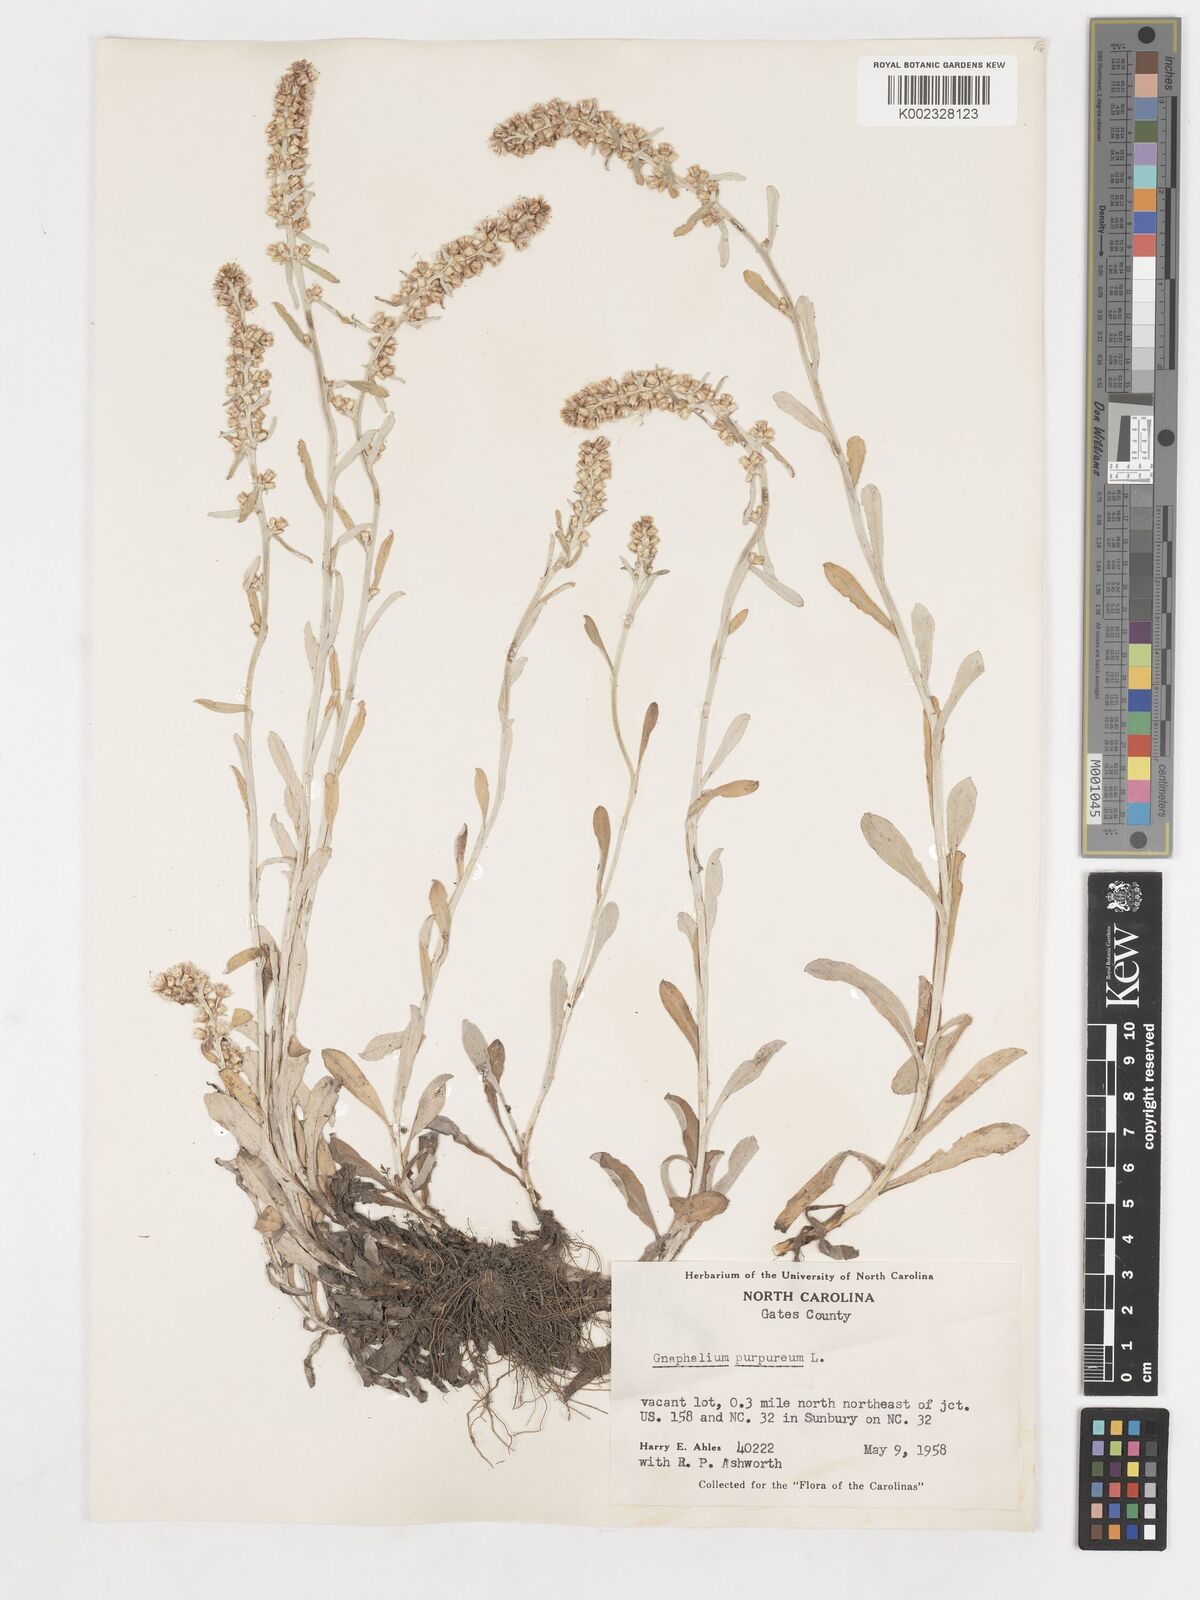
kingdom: Plantae
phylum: Tracheophyta
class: Magnoliopsida
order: Asterales
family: Asteraceae
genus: Gamochaeta
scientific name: Gamochaeta purpurea
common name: Purple cudweed
